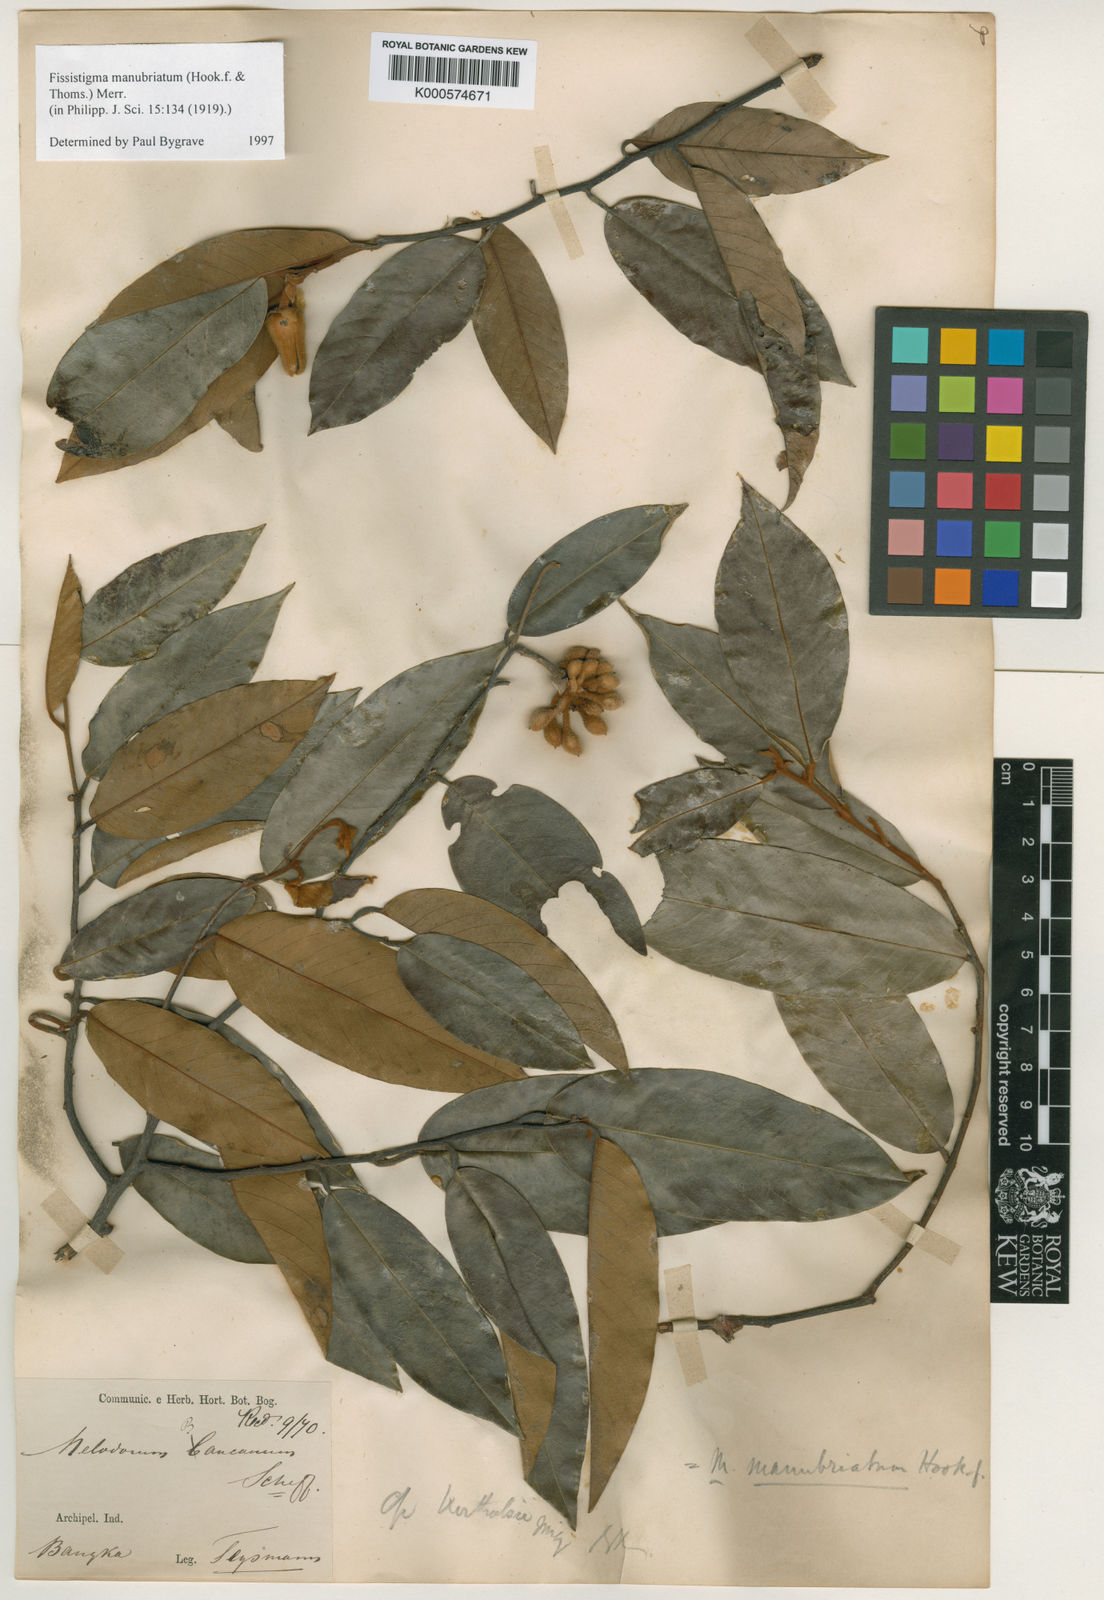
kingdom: Plantae
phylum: Tracheophyta
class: Magnoliopsida
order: Magnoliales
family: Annonaceae
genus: Fissistigma
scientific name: Fissistigma manubriatum
